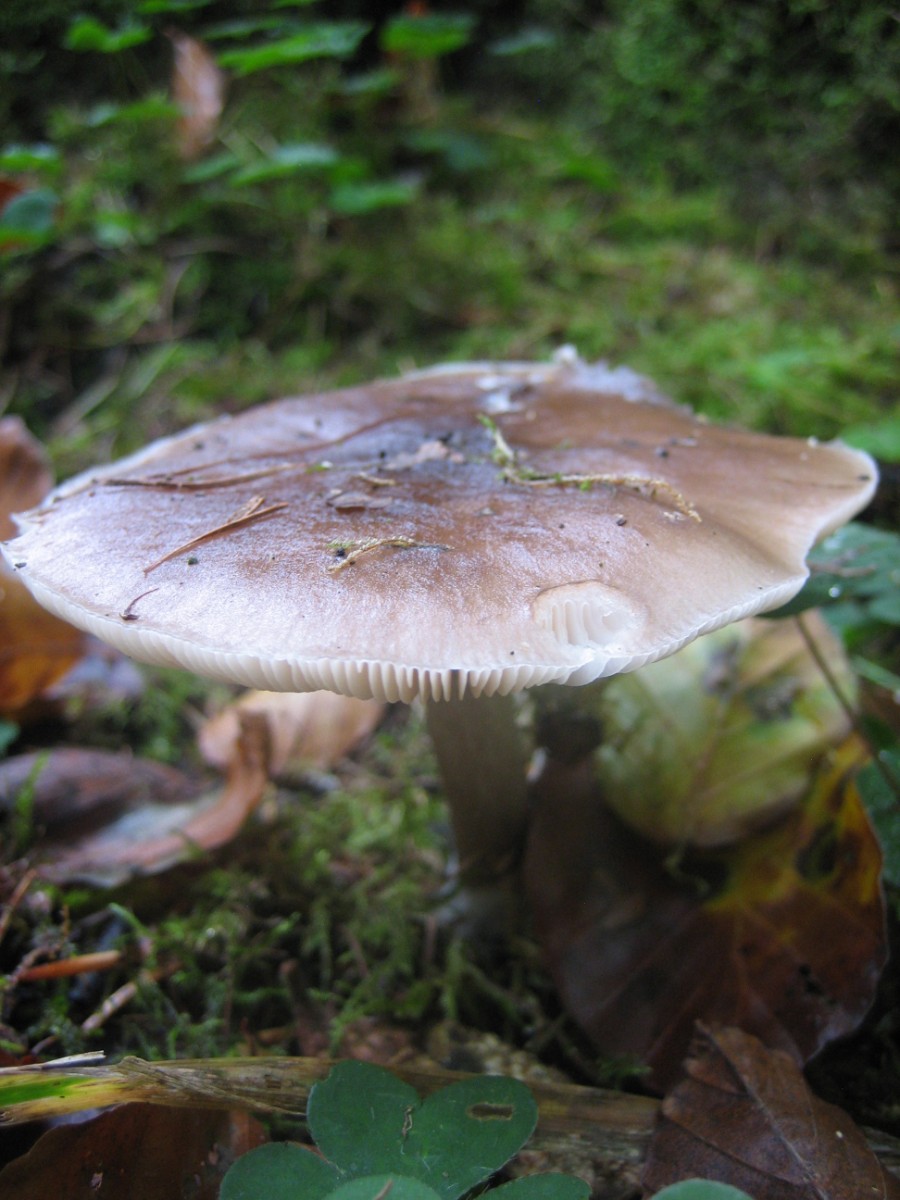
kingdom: Fungi
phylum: Basidiomycota
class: Agaricomycetes
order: Agaricales
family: Pluteaceae
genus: Pluteus
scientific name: Pluteus cervinus
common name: sodfarvet skærmhat
